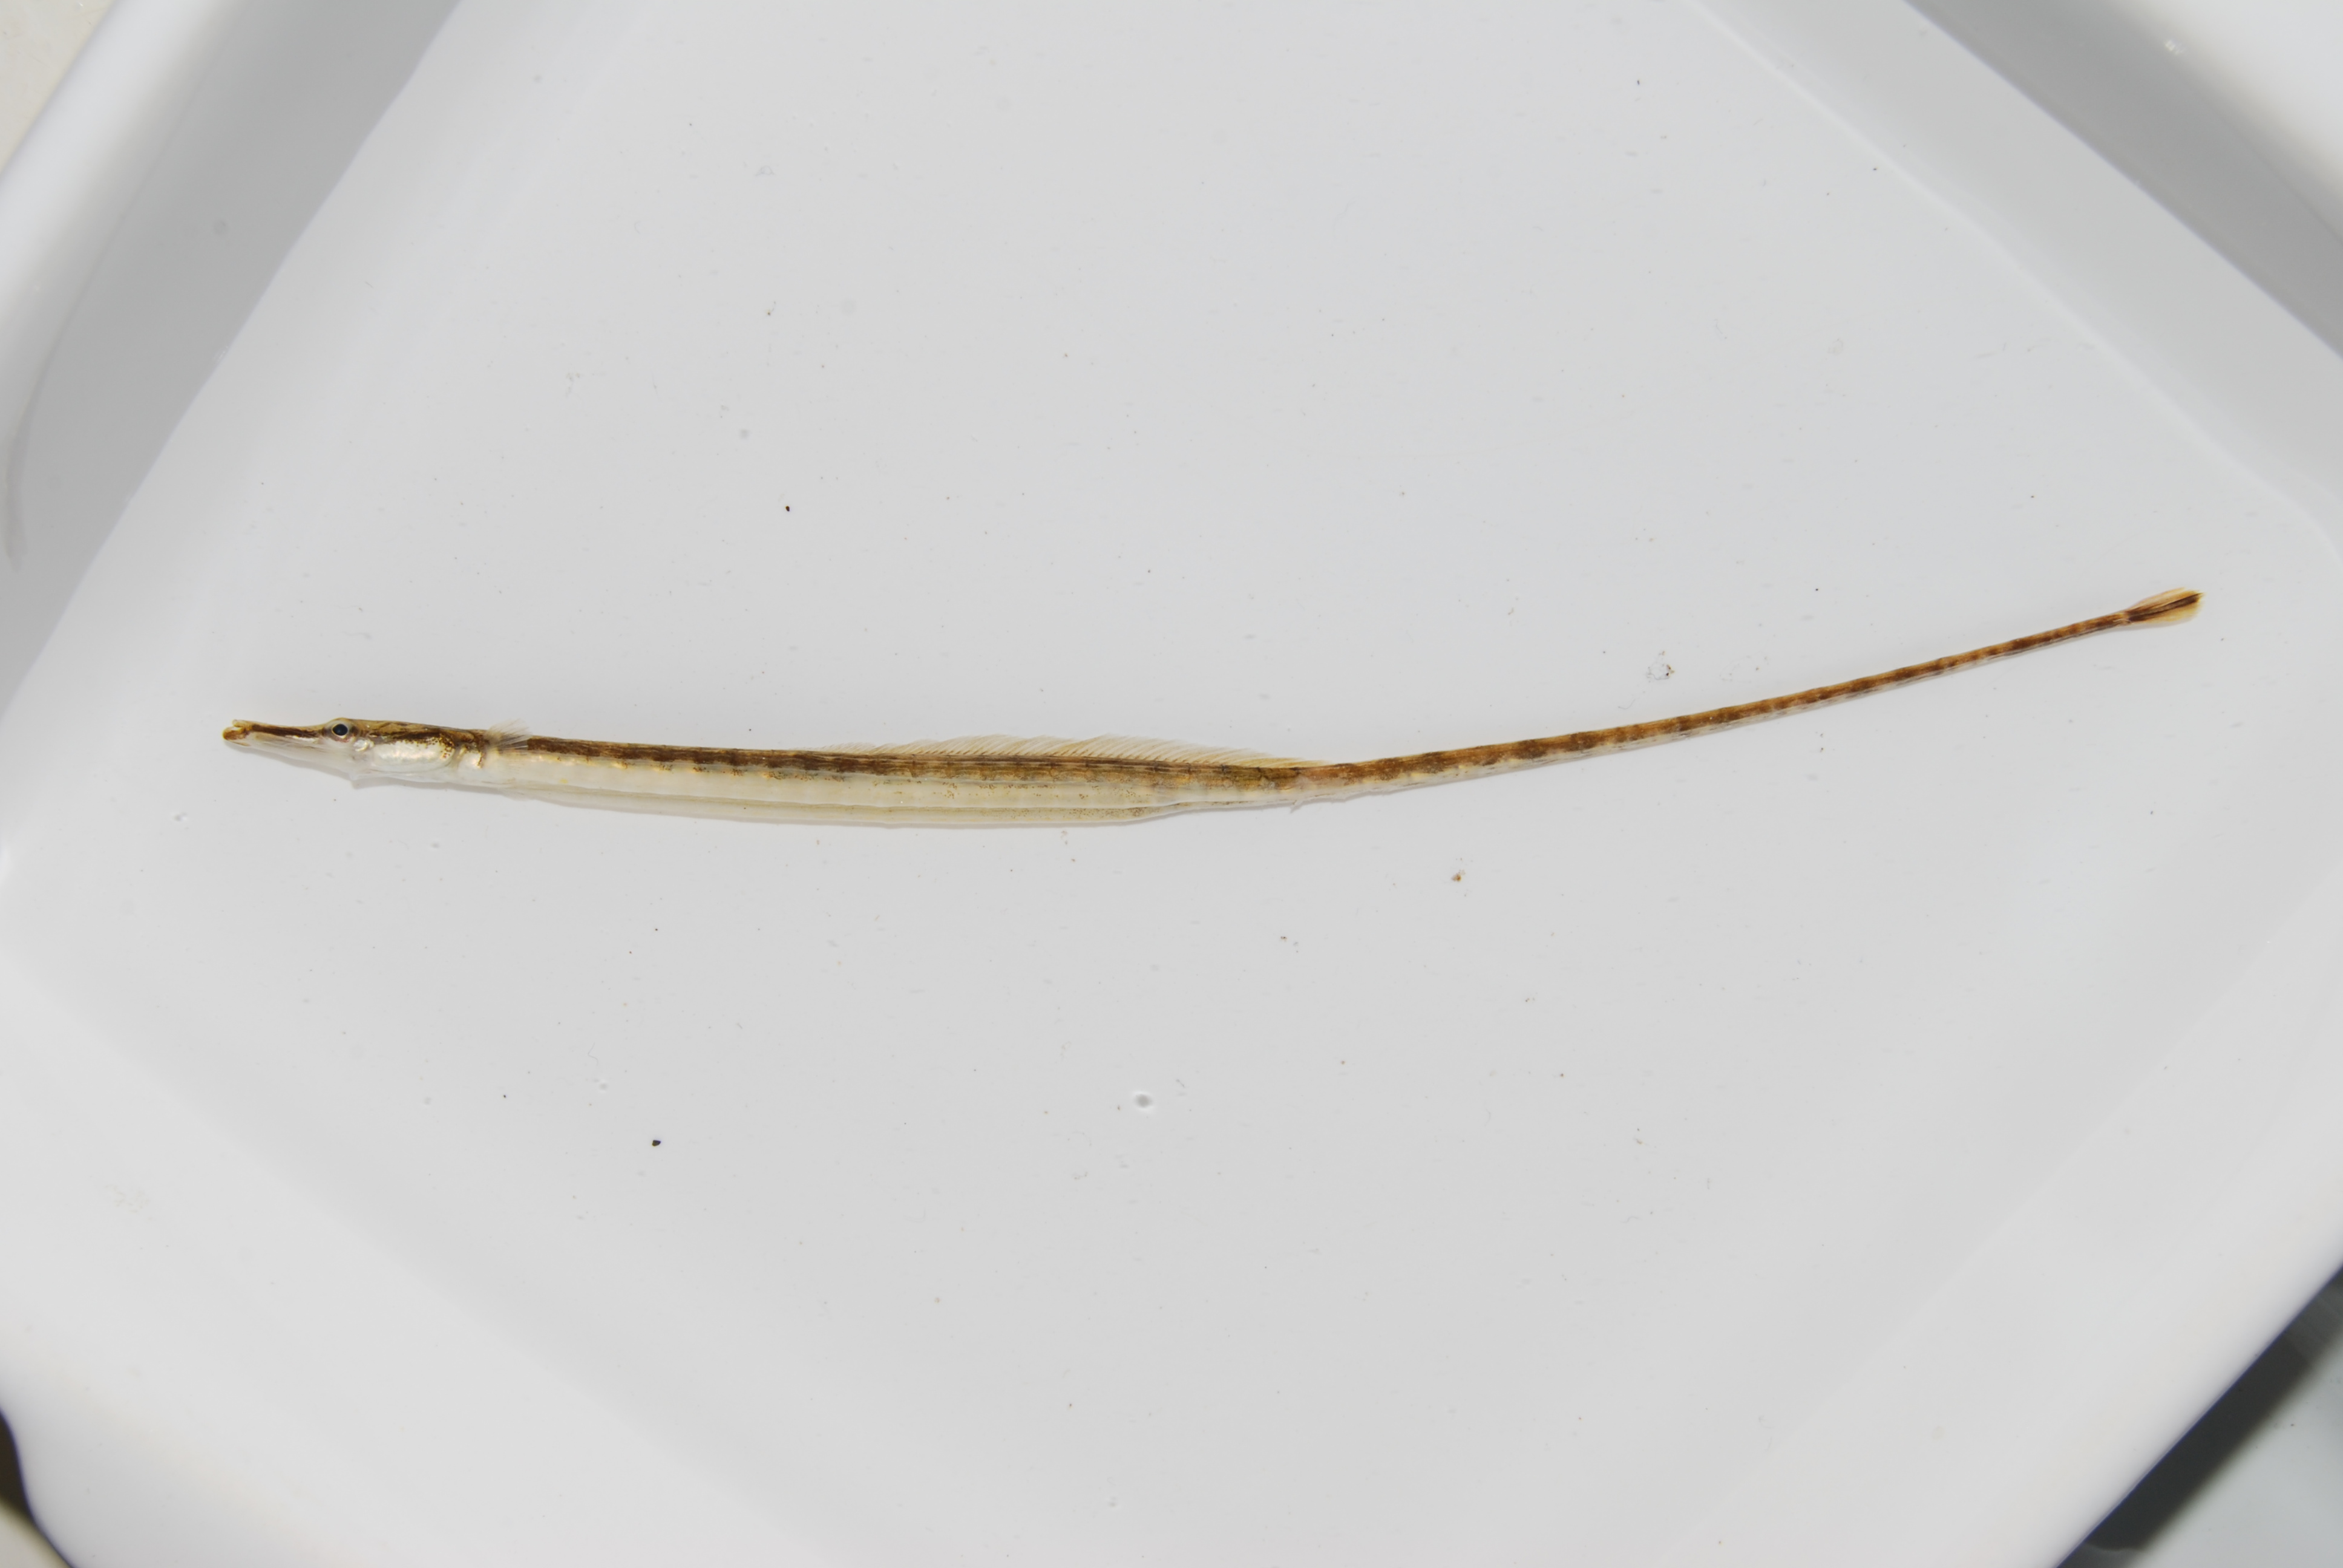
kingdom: Animalia
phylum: Chordata
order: Syngnathiformes
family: Syngnathidae
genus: Microphis
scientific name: Microphis fluviatilis
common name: Freshwater pipefish
